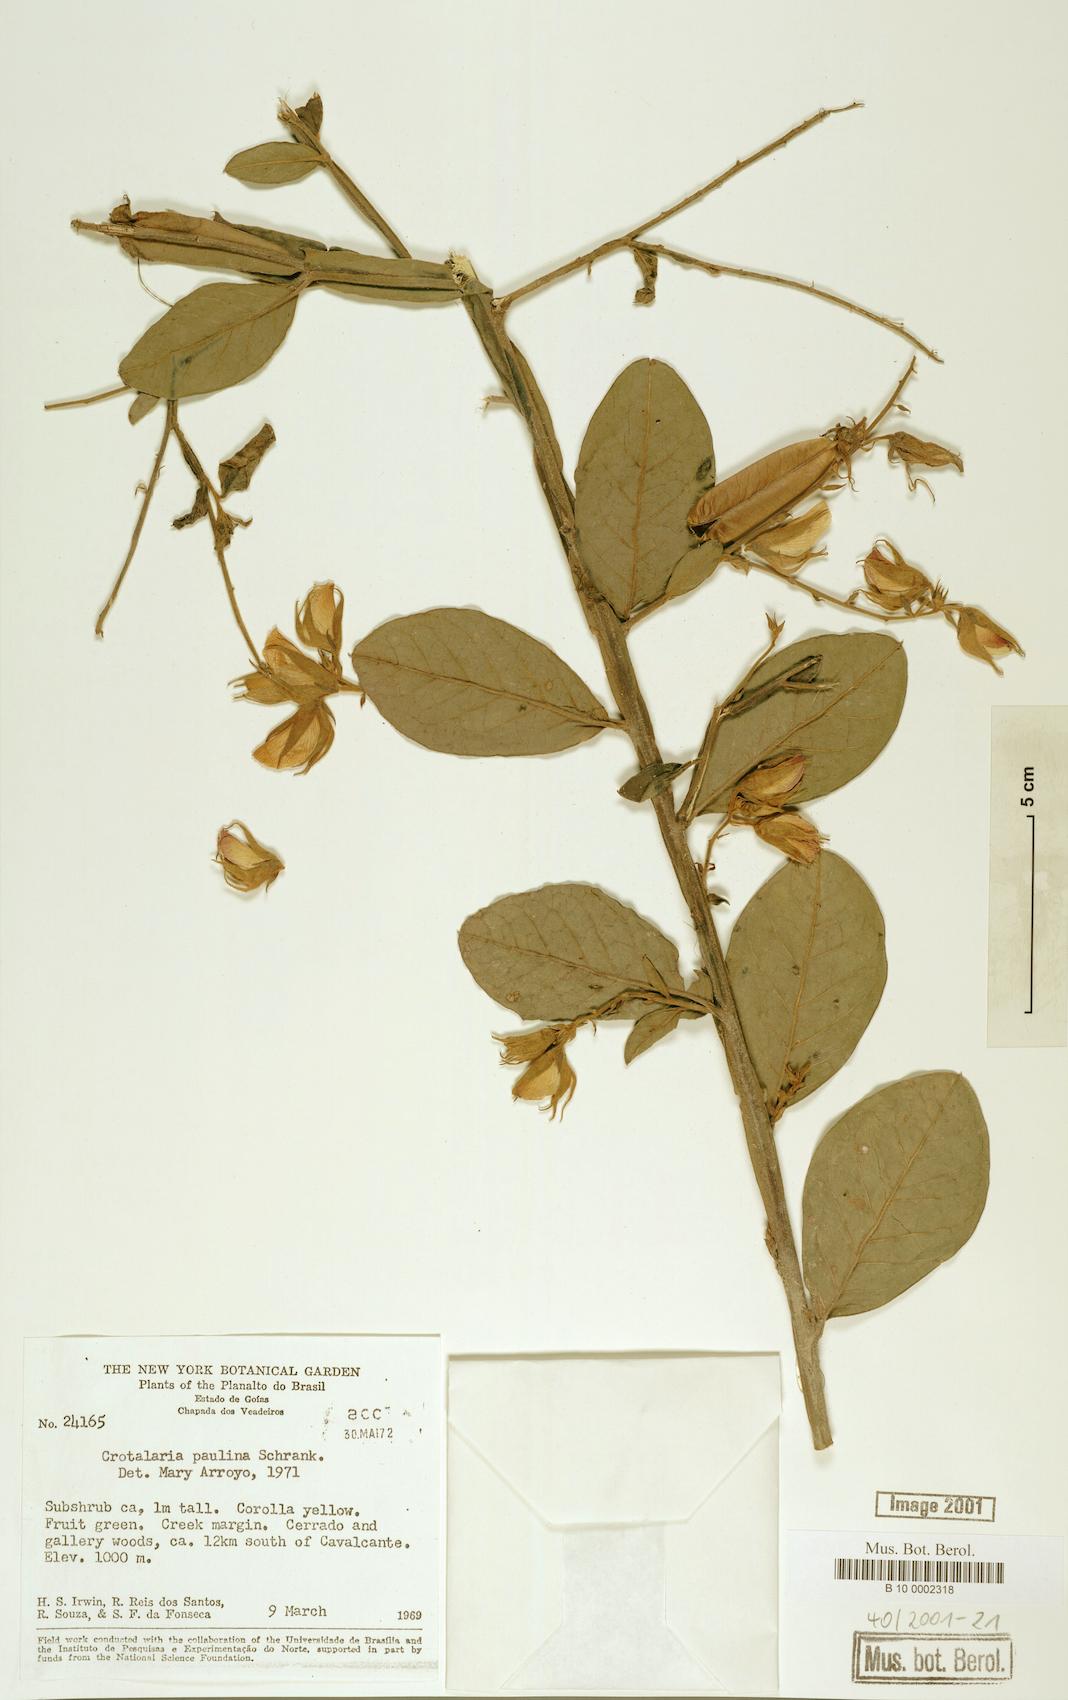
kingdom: Plantae
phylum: Tracheophyta
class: Magnoliopsida
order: Fabales
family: Fabaceae
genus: Crotalaria
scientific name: Crotalaria paulina
